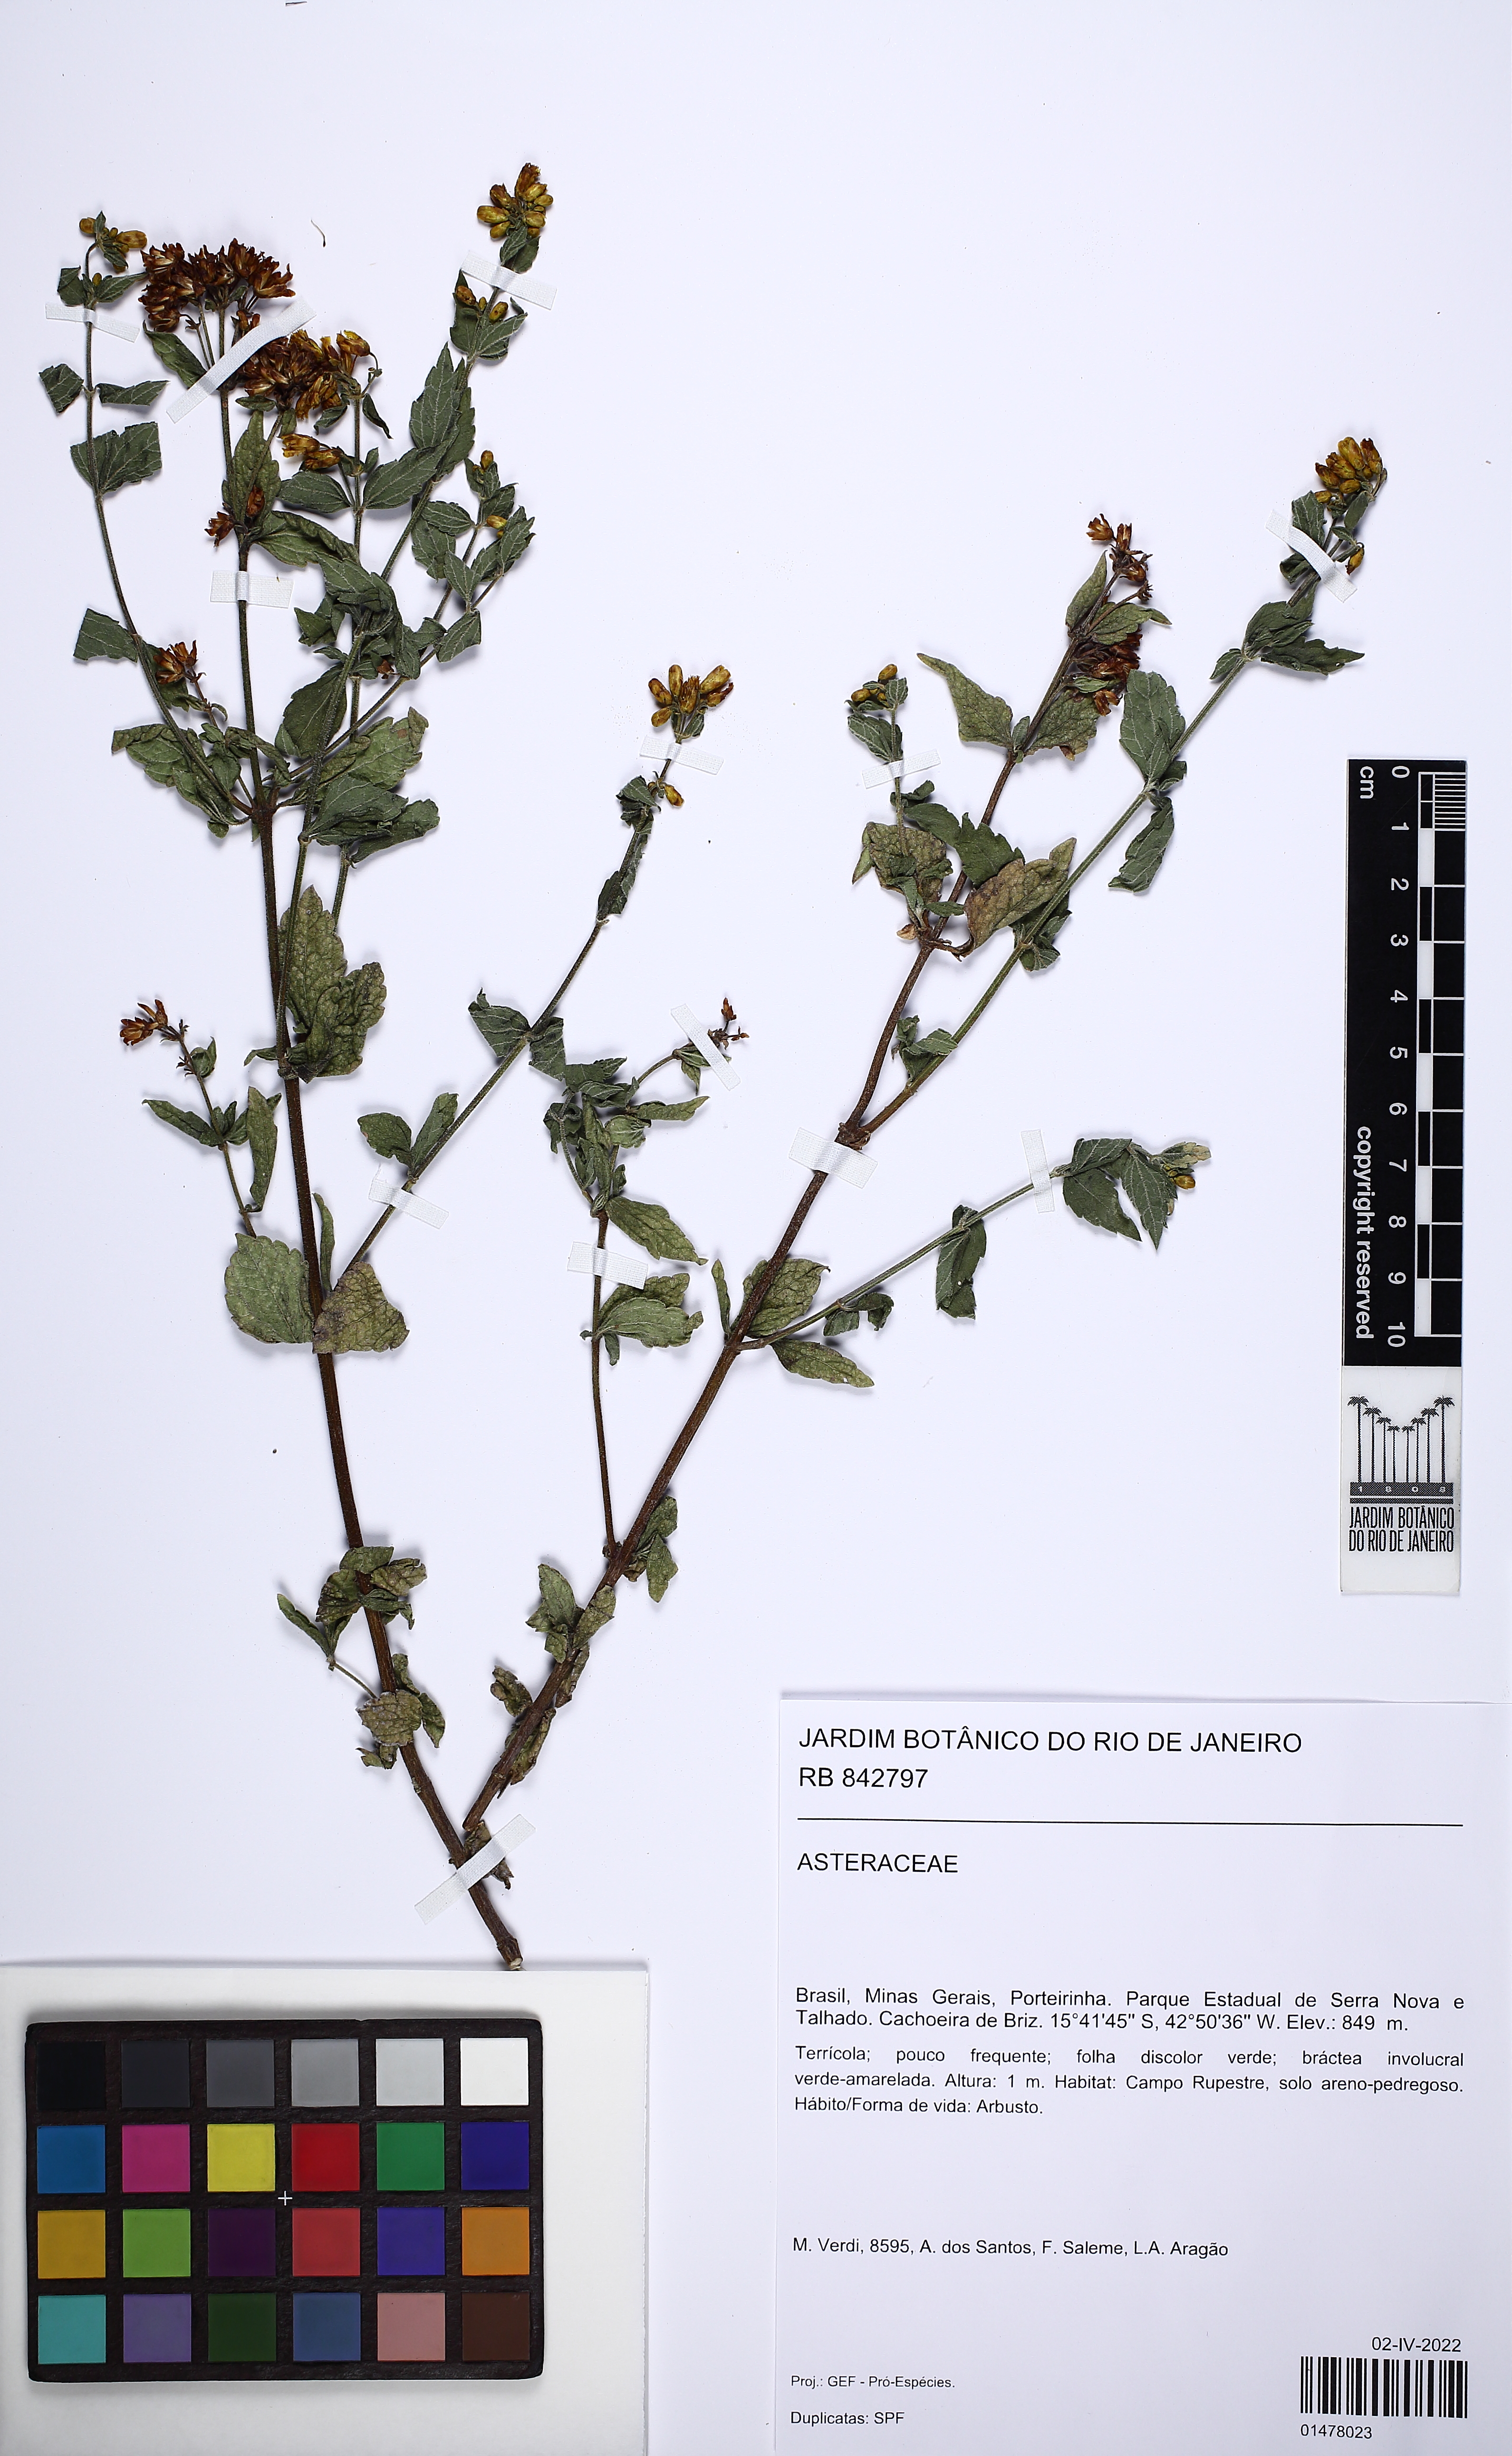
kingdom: Plantae
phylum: Tracheophyta
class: Magnoliopsida
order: Asterales
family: Asteraceae
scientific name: Asteraceae
